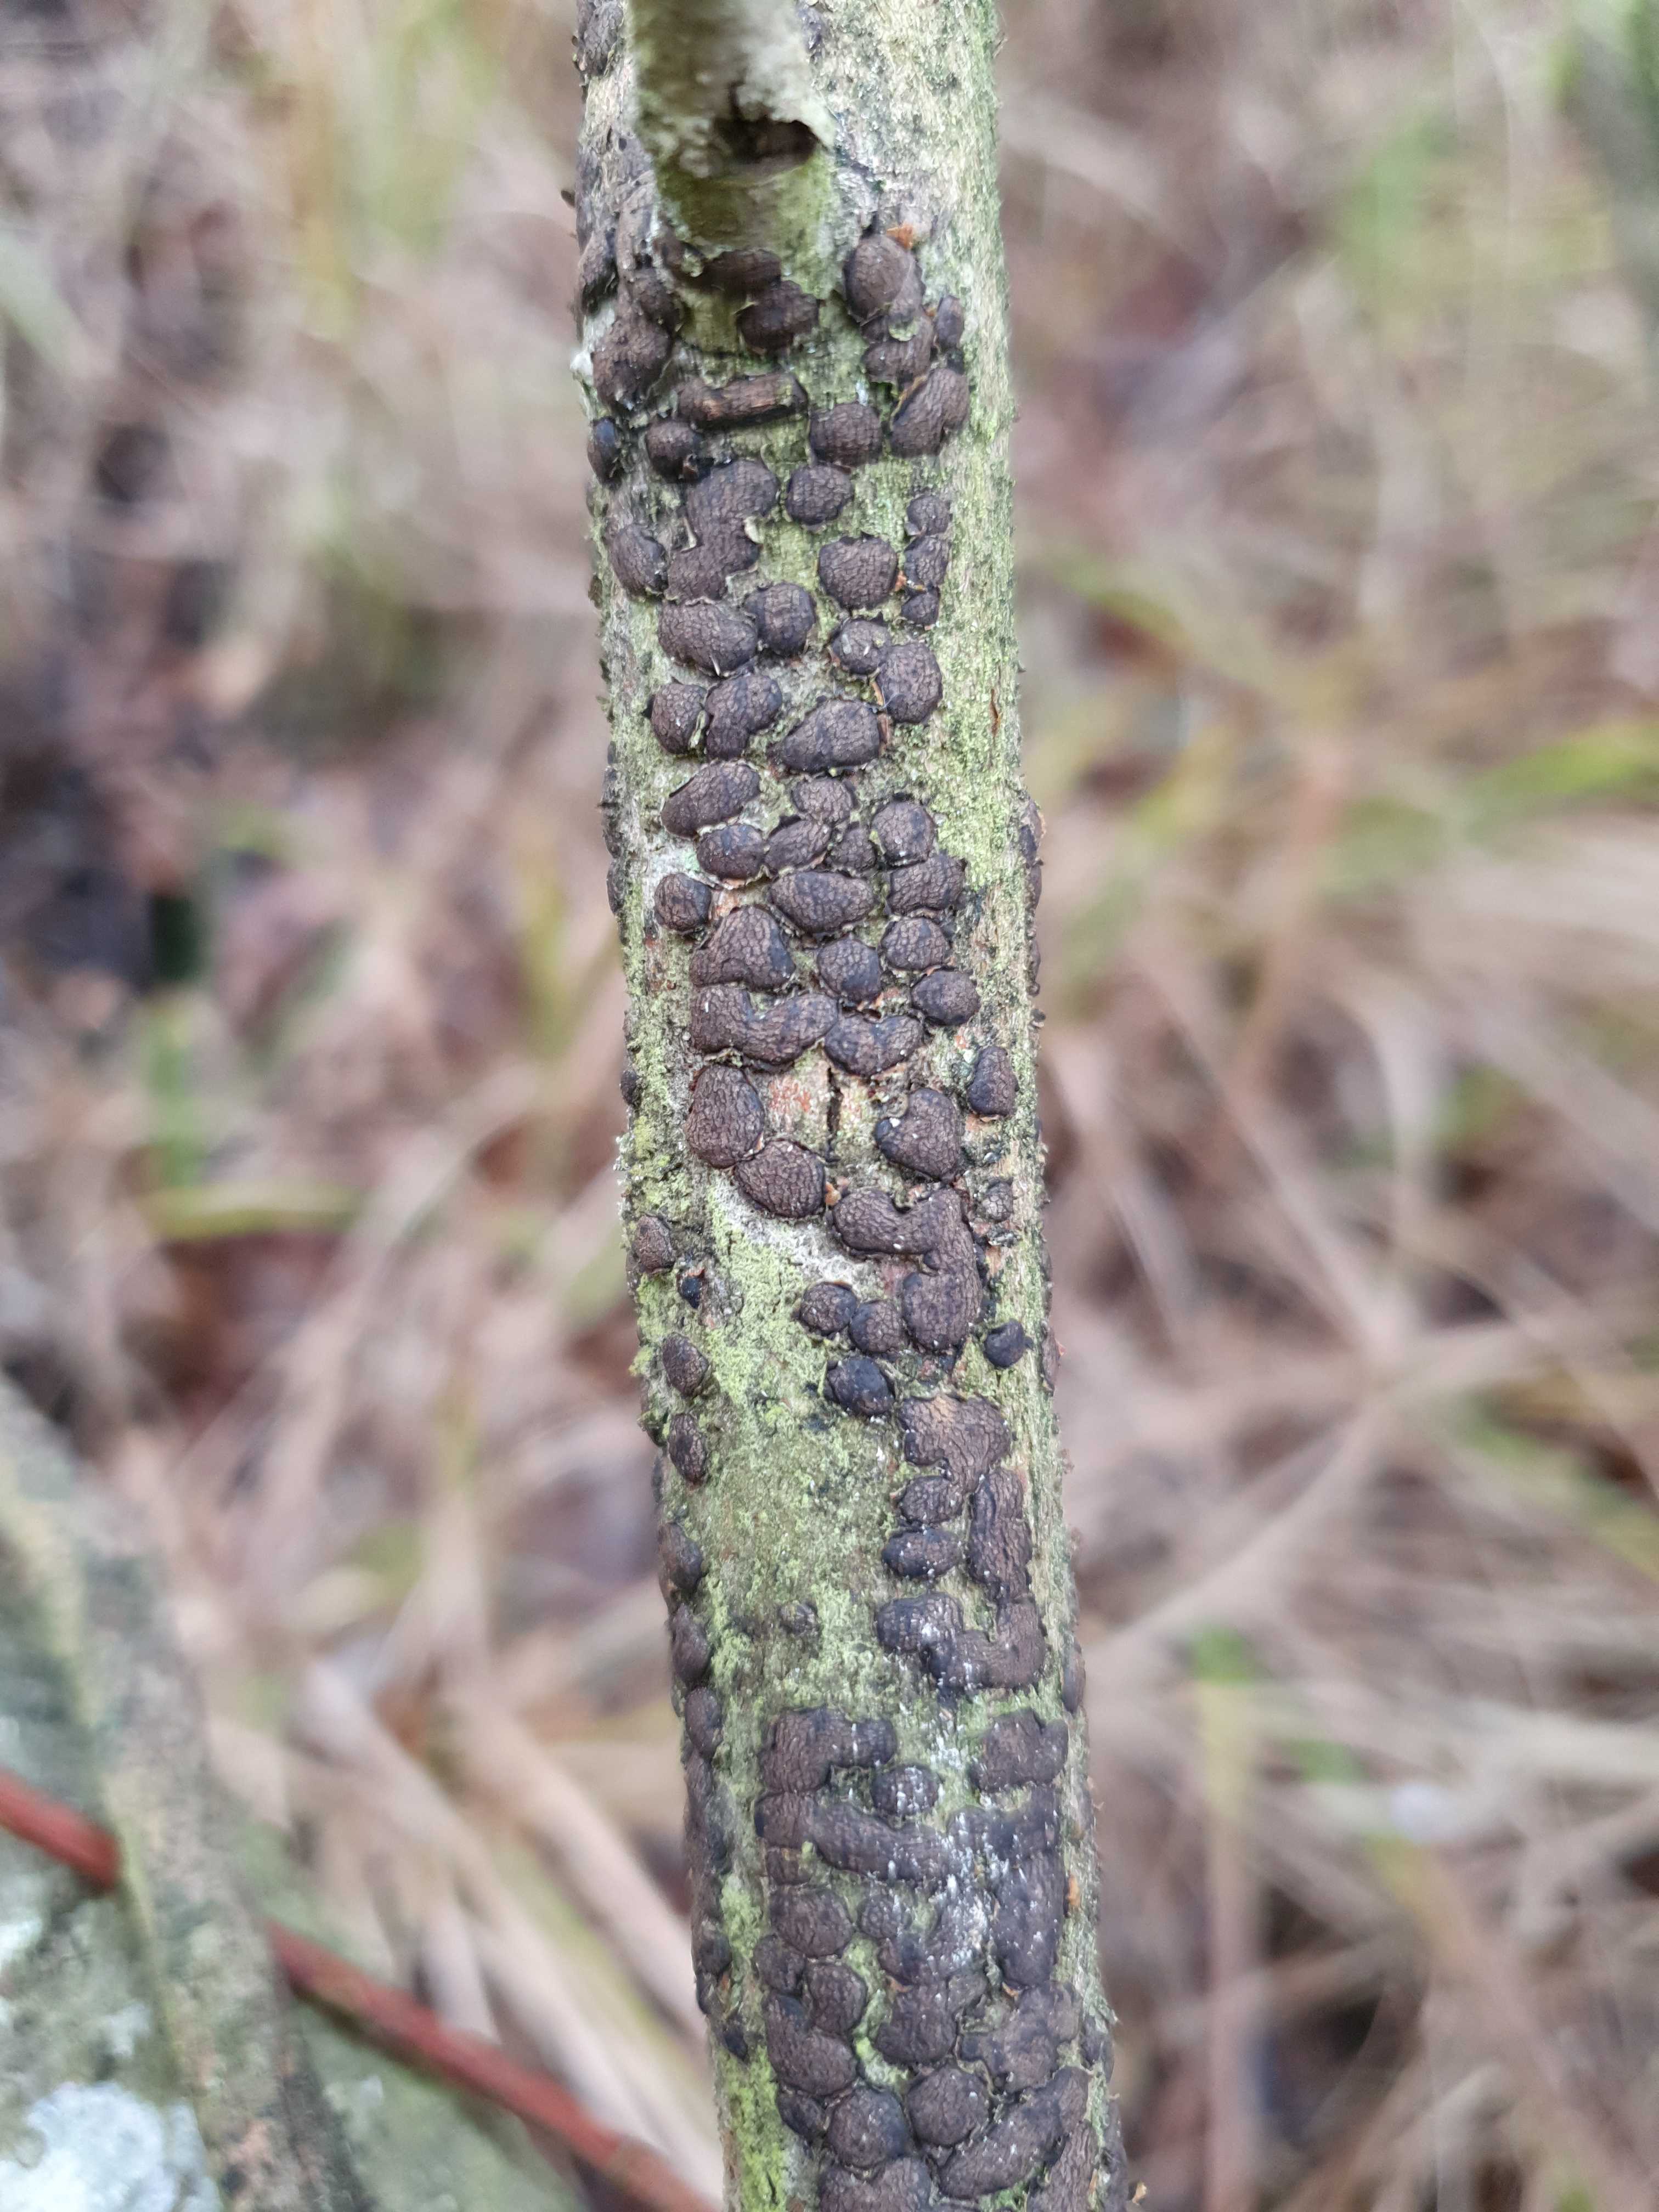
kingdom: Fungi
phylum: Ascomycota
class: Sordariomycetes
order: Xylariales
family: Diatrypaceae
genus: Diatrype
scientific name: Diatrype bullata
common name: pile-kulskorpe
